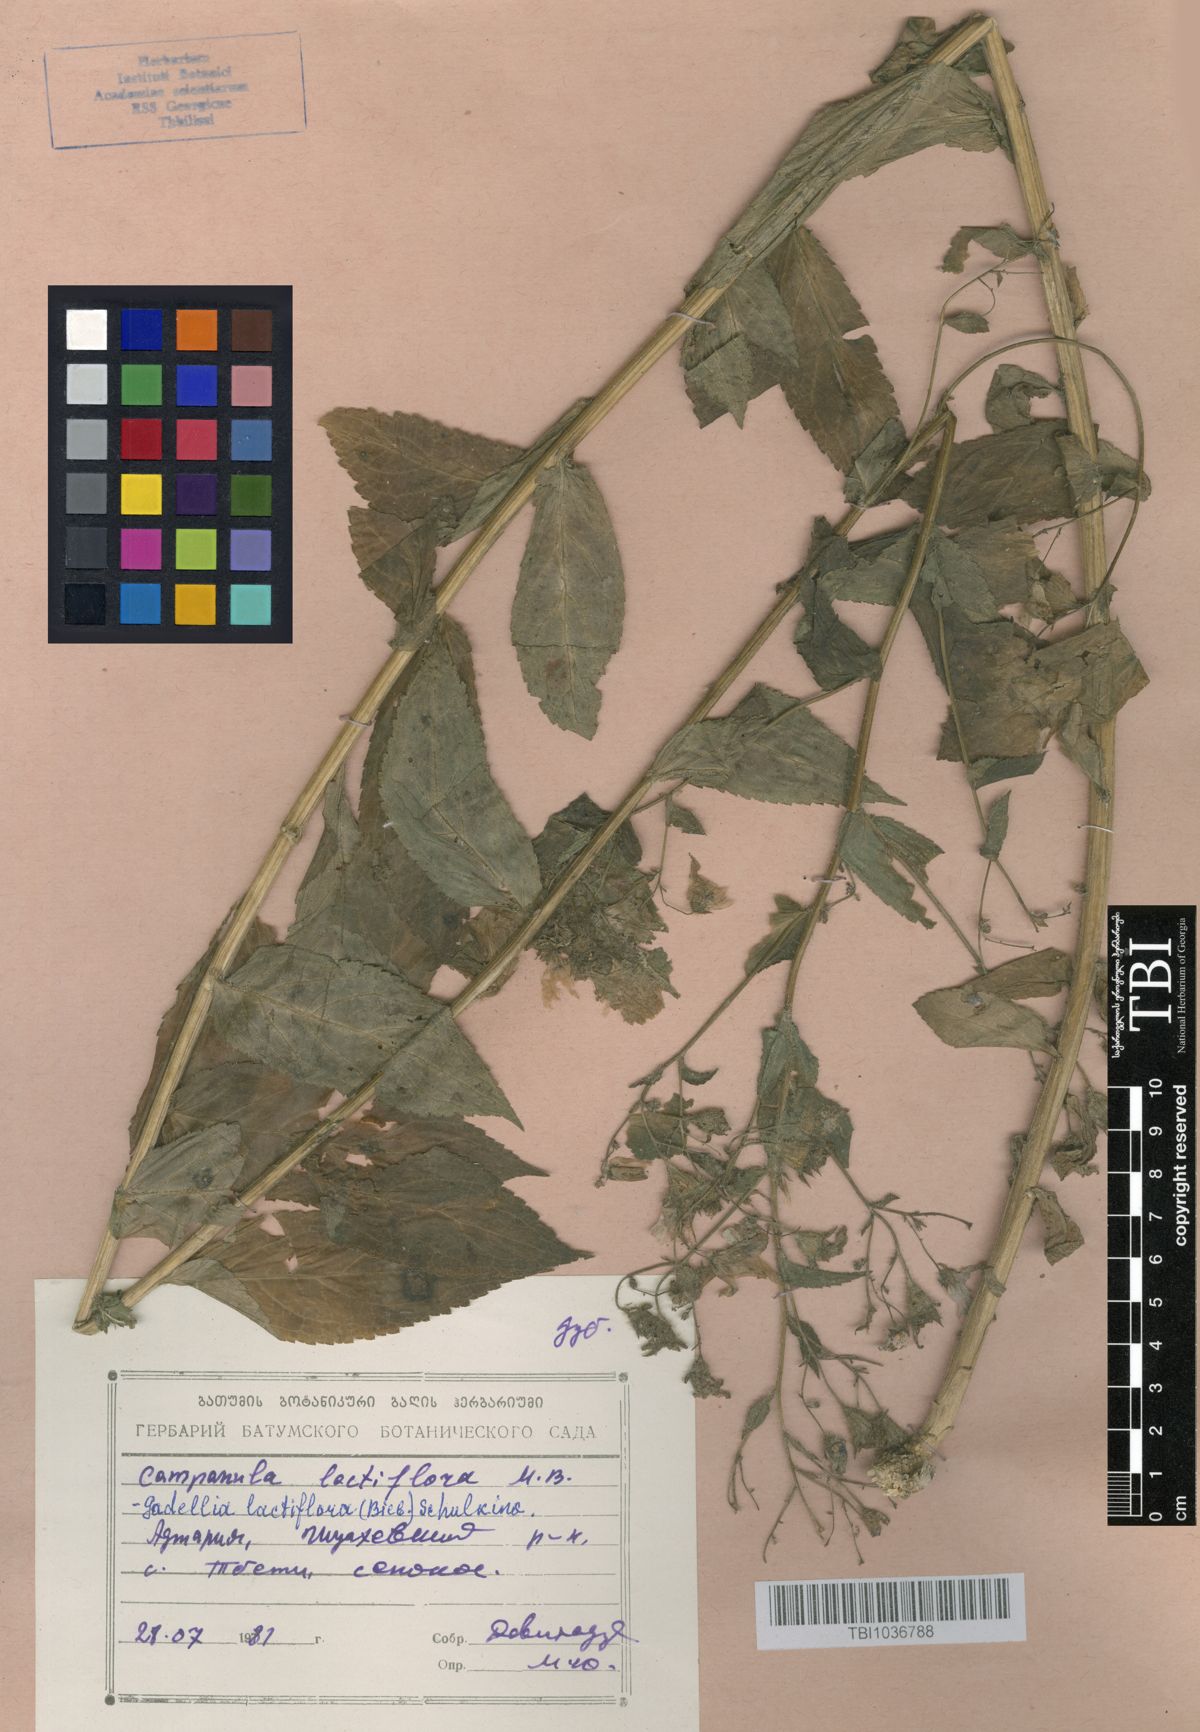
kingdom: Plantae
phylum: Tracheophyta
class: Magnoliopsida
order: Asterales
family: Campanulaceae
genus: Campanula
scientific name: Campanula lactiflora
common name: Milky bellflower
